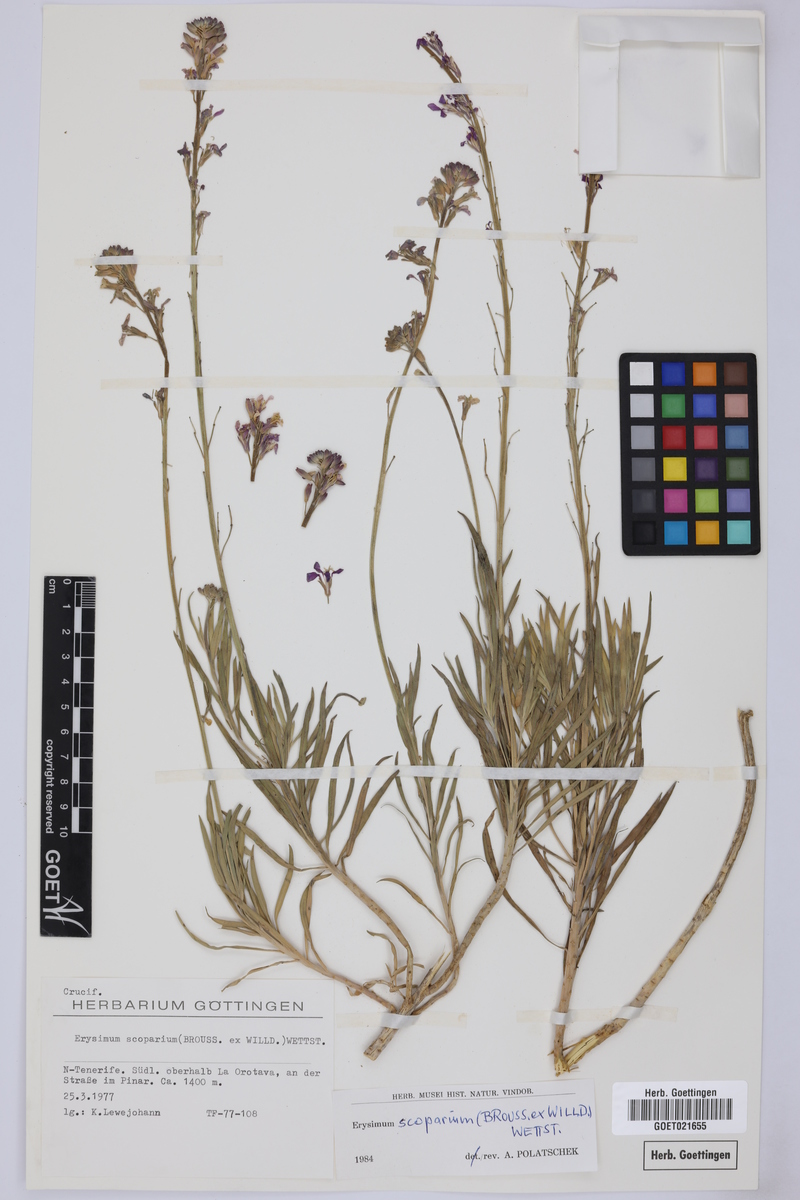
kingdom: Plantae
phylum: Tracheophyta
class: Magnoliopsida
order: Brassicales
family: Brassicaceae
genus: Erysimum
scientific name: Erysimum scoparium
